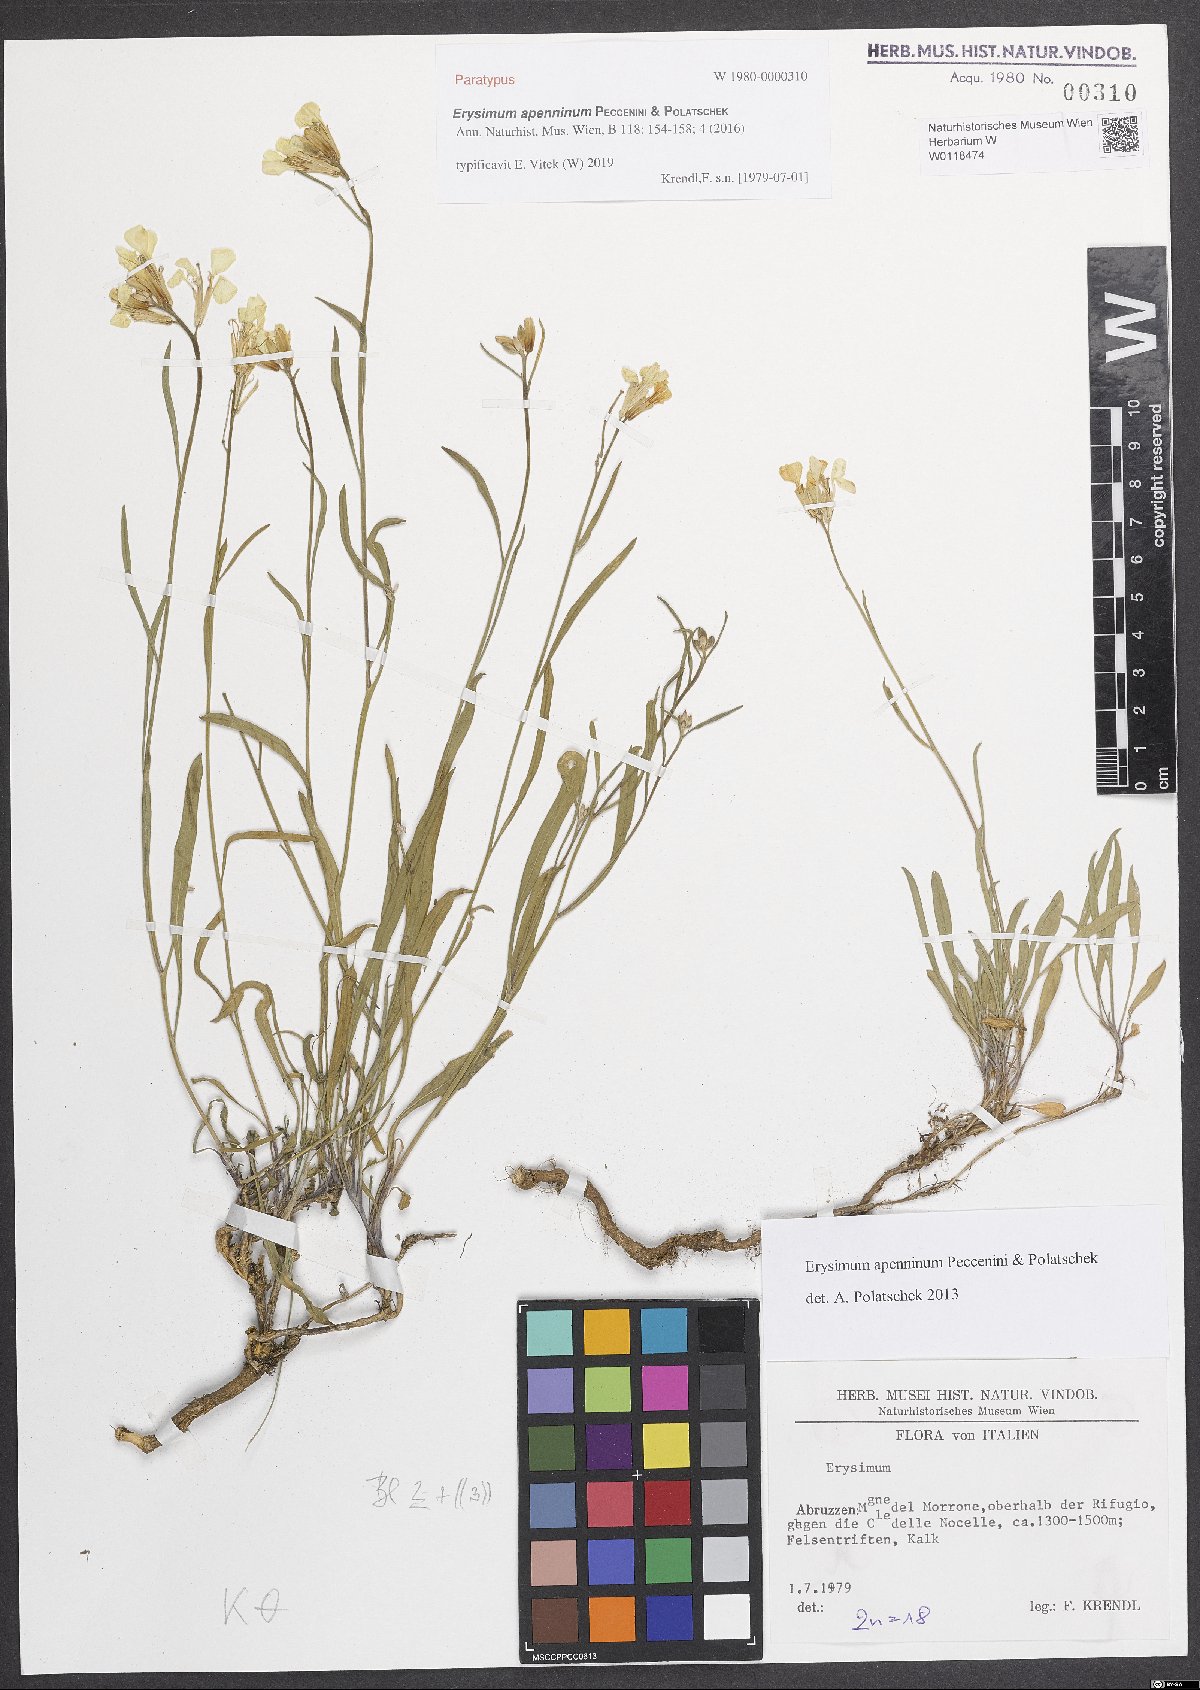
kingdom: Plantae
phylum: Tracheophyta
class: Magnoliopsida
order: Brassicales
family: Brassicaceae
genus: Erysimum
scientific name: Erysimum apenninum
